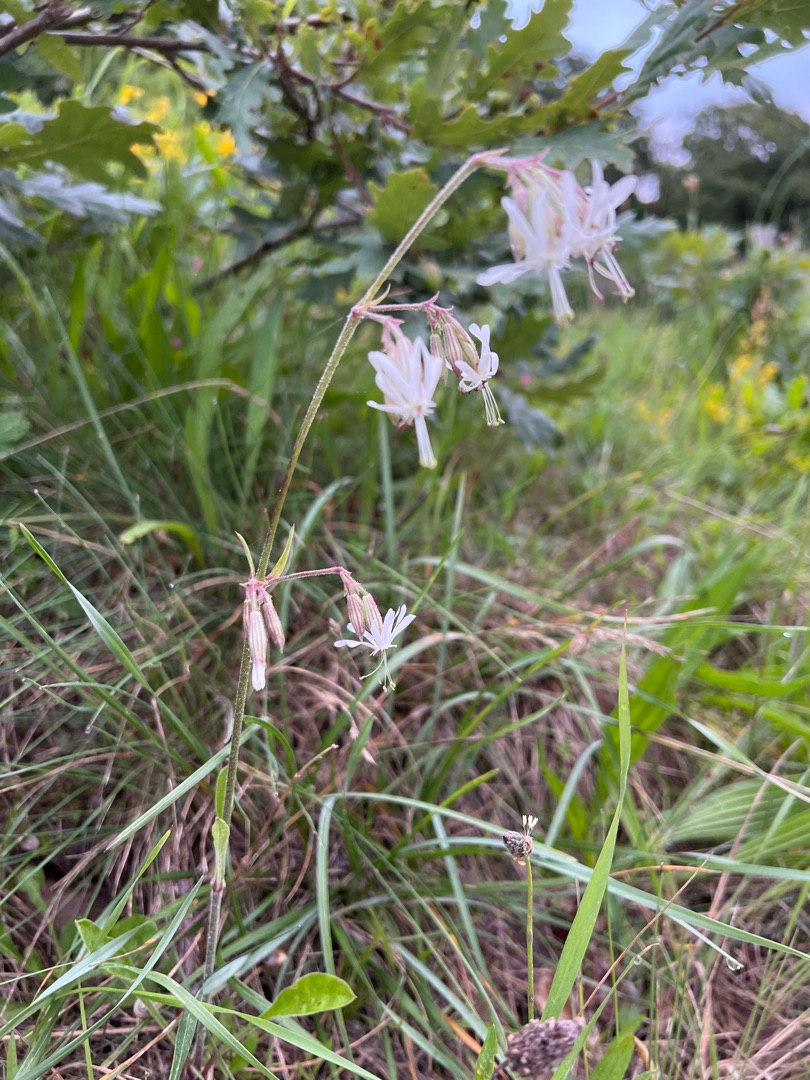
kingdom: Plantae
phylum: Tracheophyta
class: Magnoliopsida
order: Caryophyllales
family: Caryophyllaceae
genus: Silene
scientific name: Silene nutans
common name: Nikkende limurt
